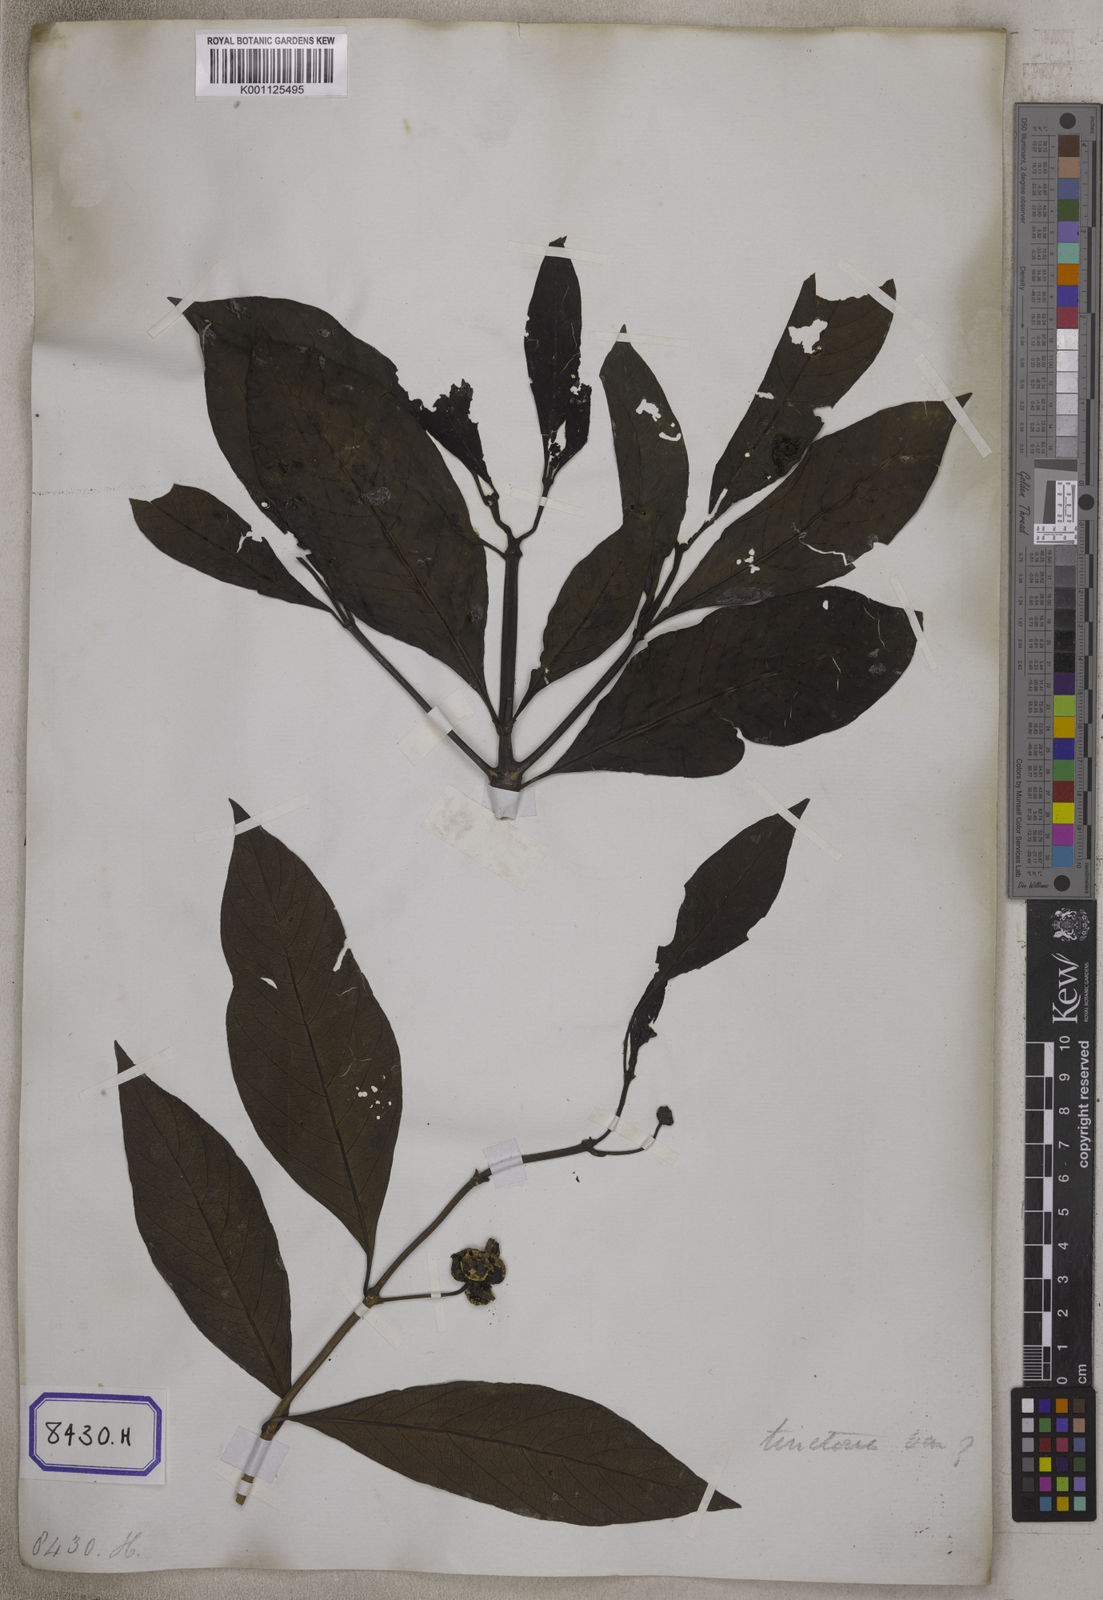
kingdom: Plantae
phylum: Tracheophyta
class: Magnoliopsida
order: Gentianales
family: Rubiaceae
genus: Morinda
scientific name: Morinda
